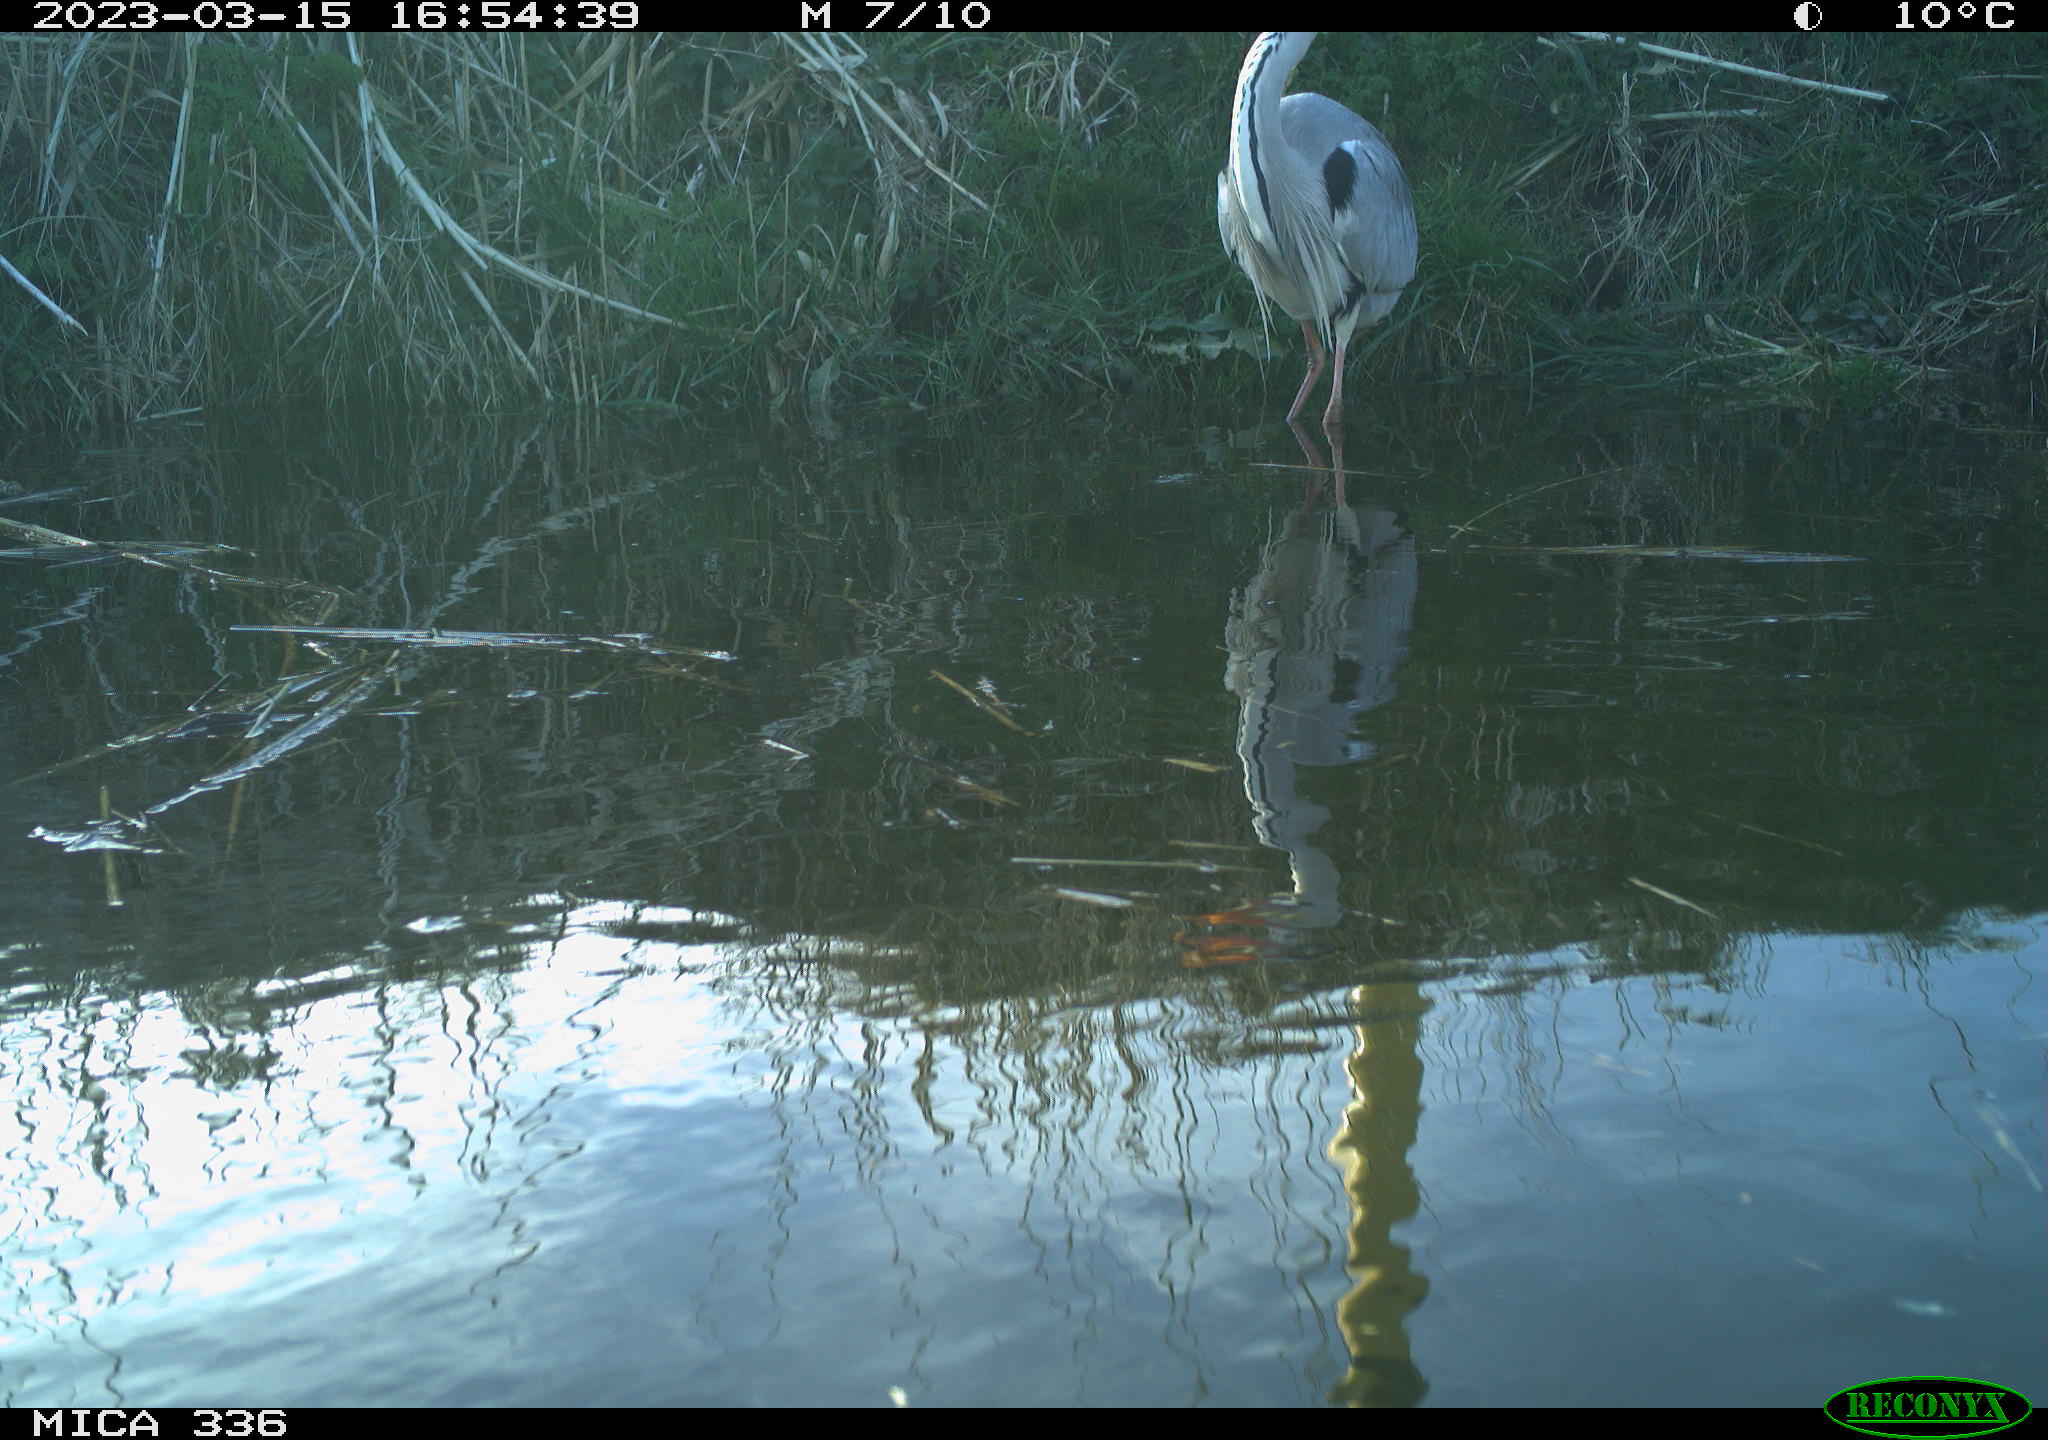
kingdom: Animalia
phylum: Chordata
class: Aves
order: Pelecaniformes
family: Ardeidae
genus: Ardea
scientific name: Ardea cinerea
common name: Grey heron
